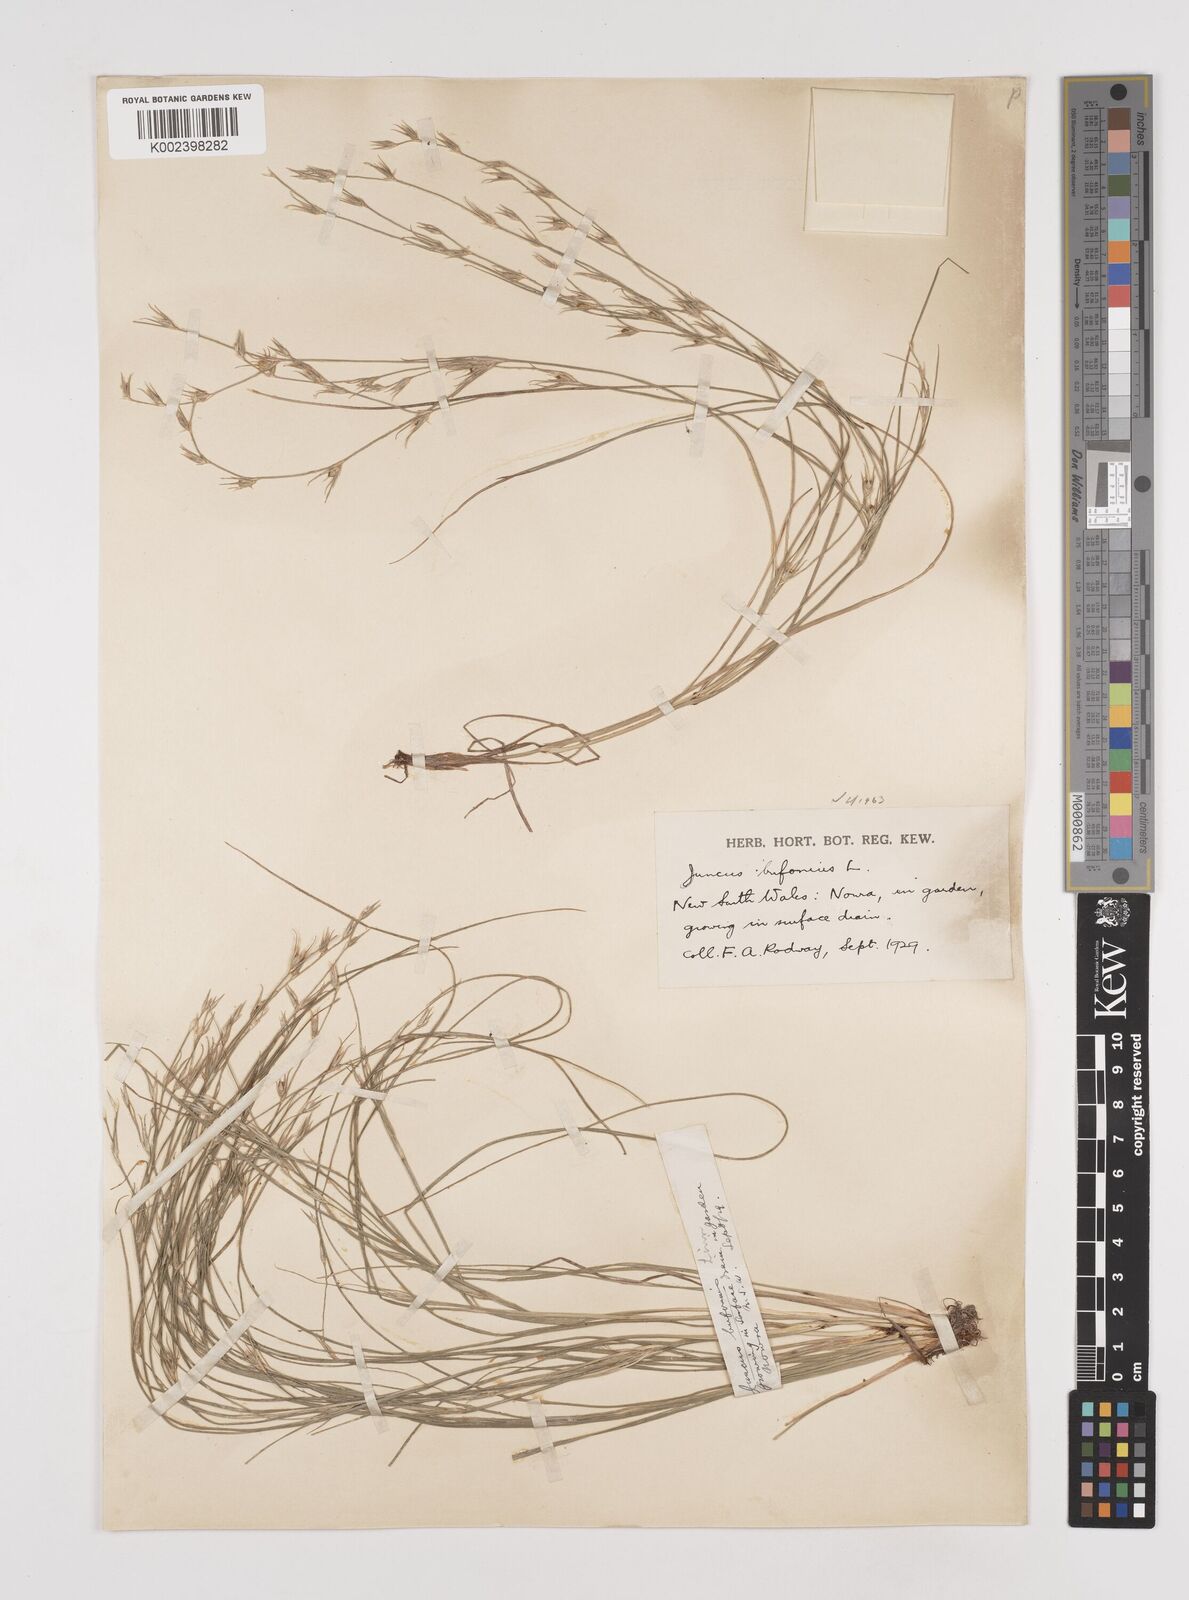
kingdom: Plantae
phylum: Tracheophyta
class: Liliopsida
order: Poales
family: Juncaceae
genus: Juncus
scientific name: Juncus ranarius
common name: Frog rush
